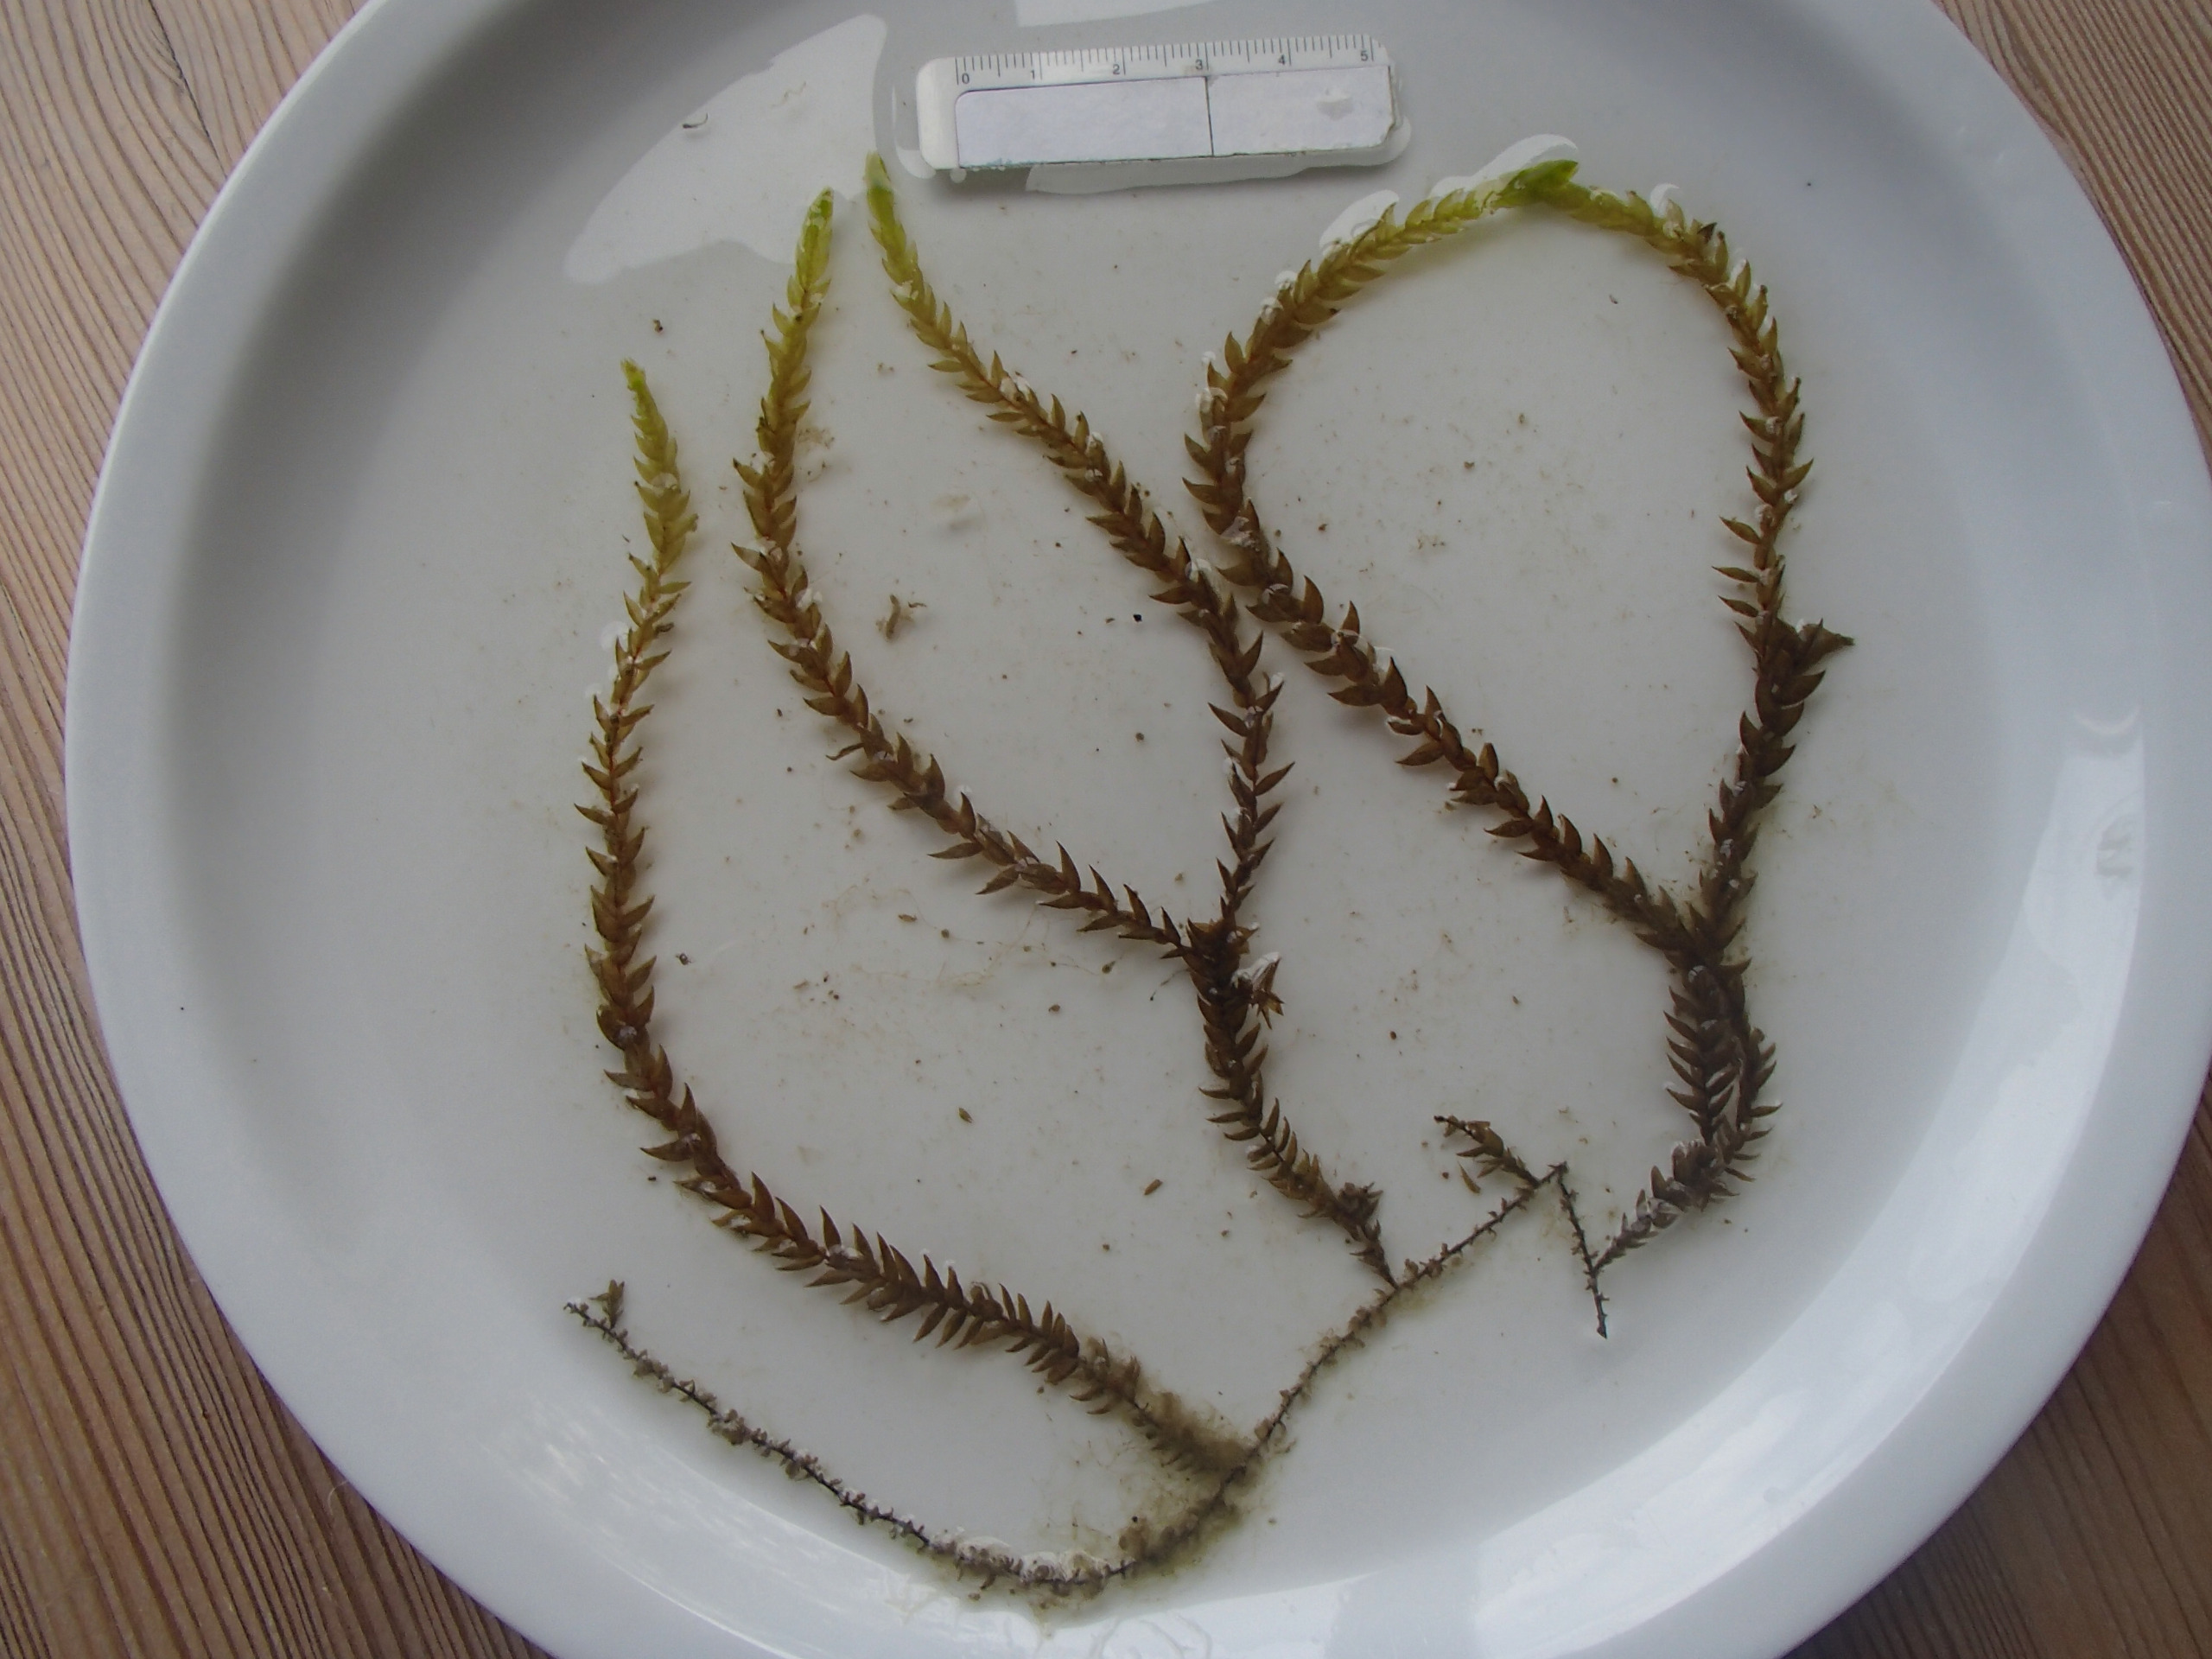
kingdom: Plantae
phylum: Bryophyta
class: Bryopsida
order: Hypnales
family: Fontinalaceae
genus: Fontinalis
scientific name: Fontinalis antipyretica
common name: Stor kildemos
